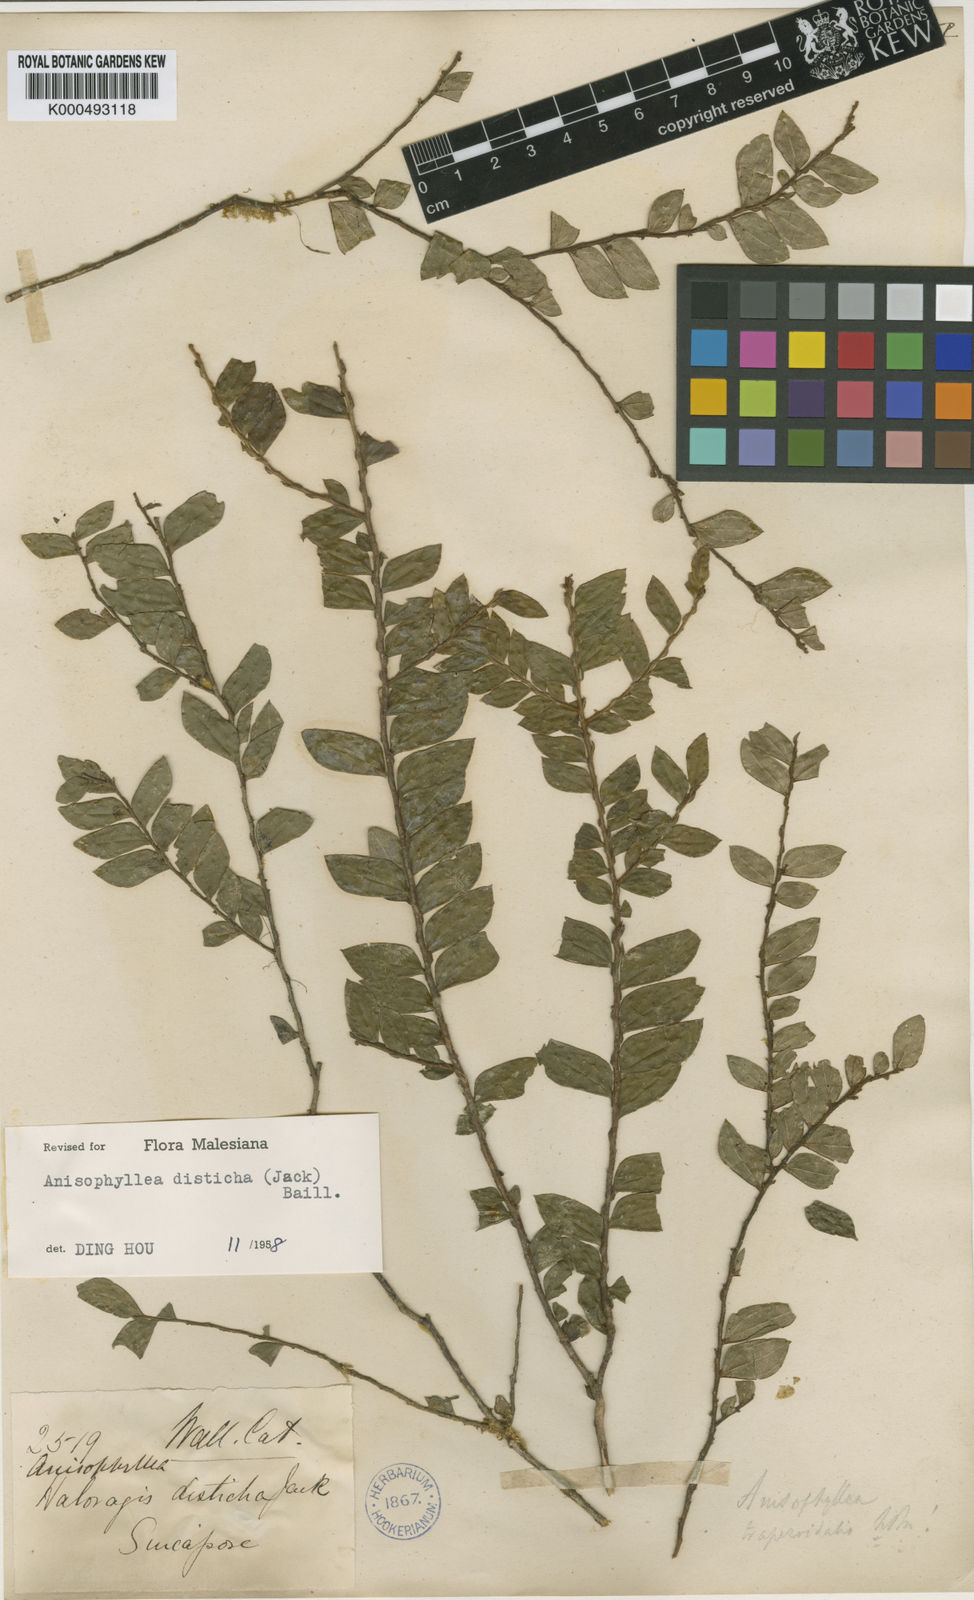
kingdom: Plantae
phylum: Tracheophyta
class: Magnoliopsida
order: Cucurbitales
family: Anisophylleaceae
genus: Anisophyllea
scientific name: Anisophyllea disticha
